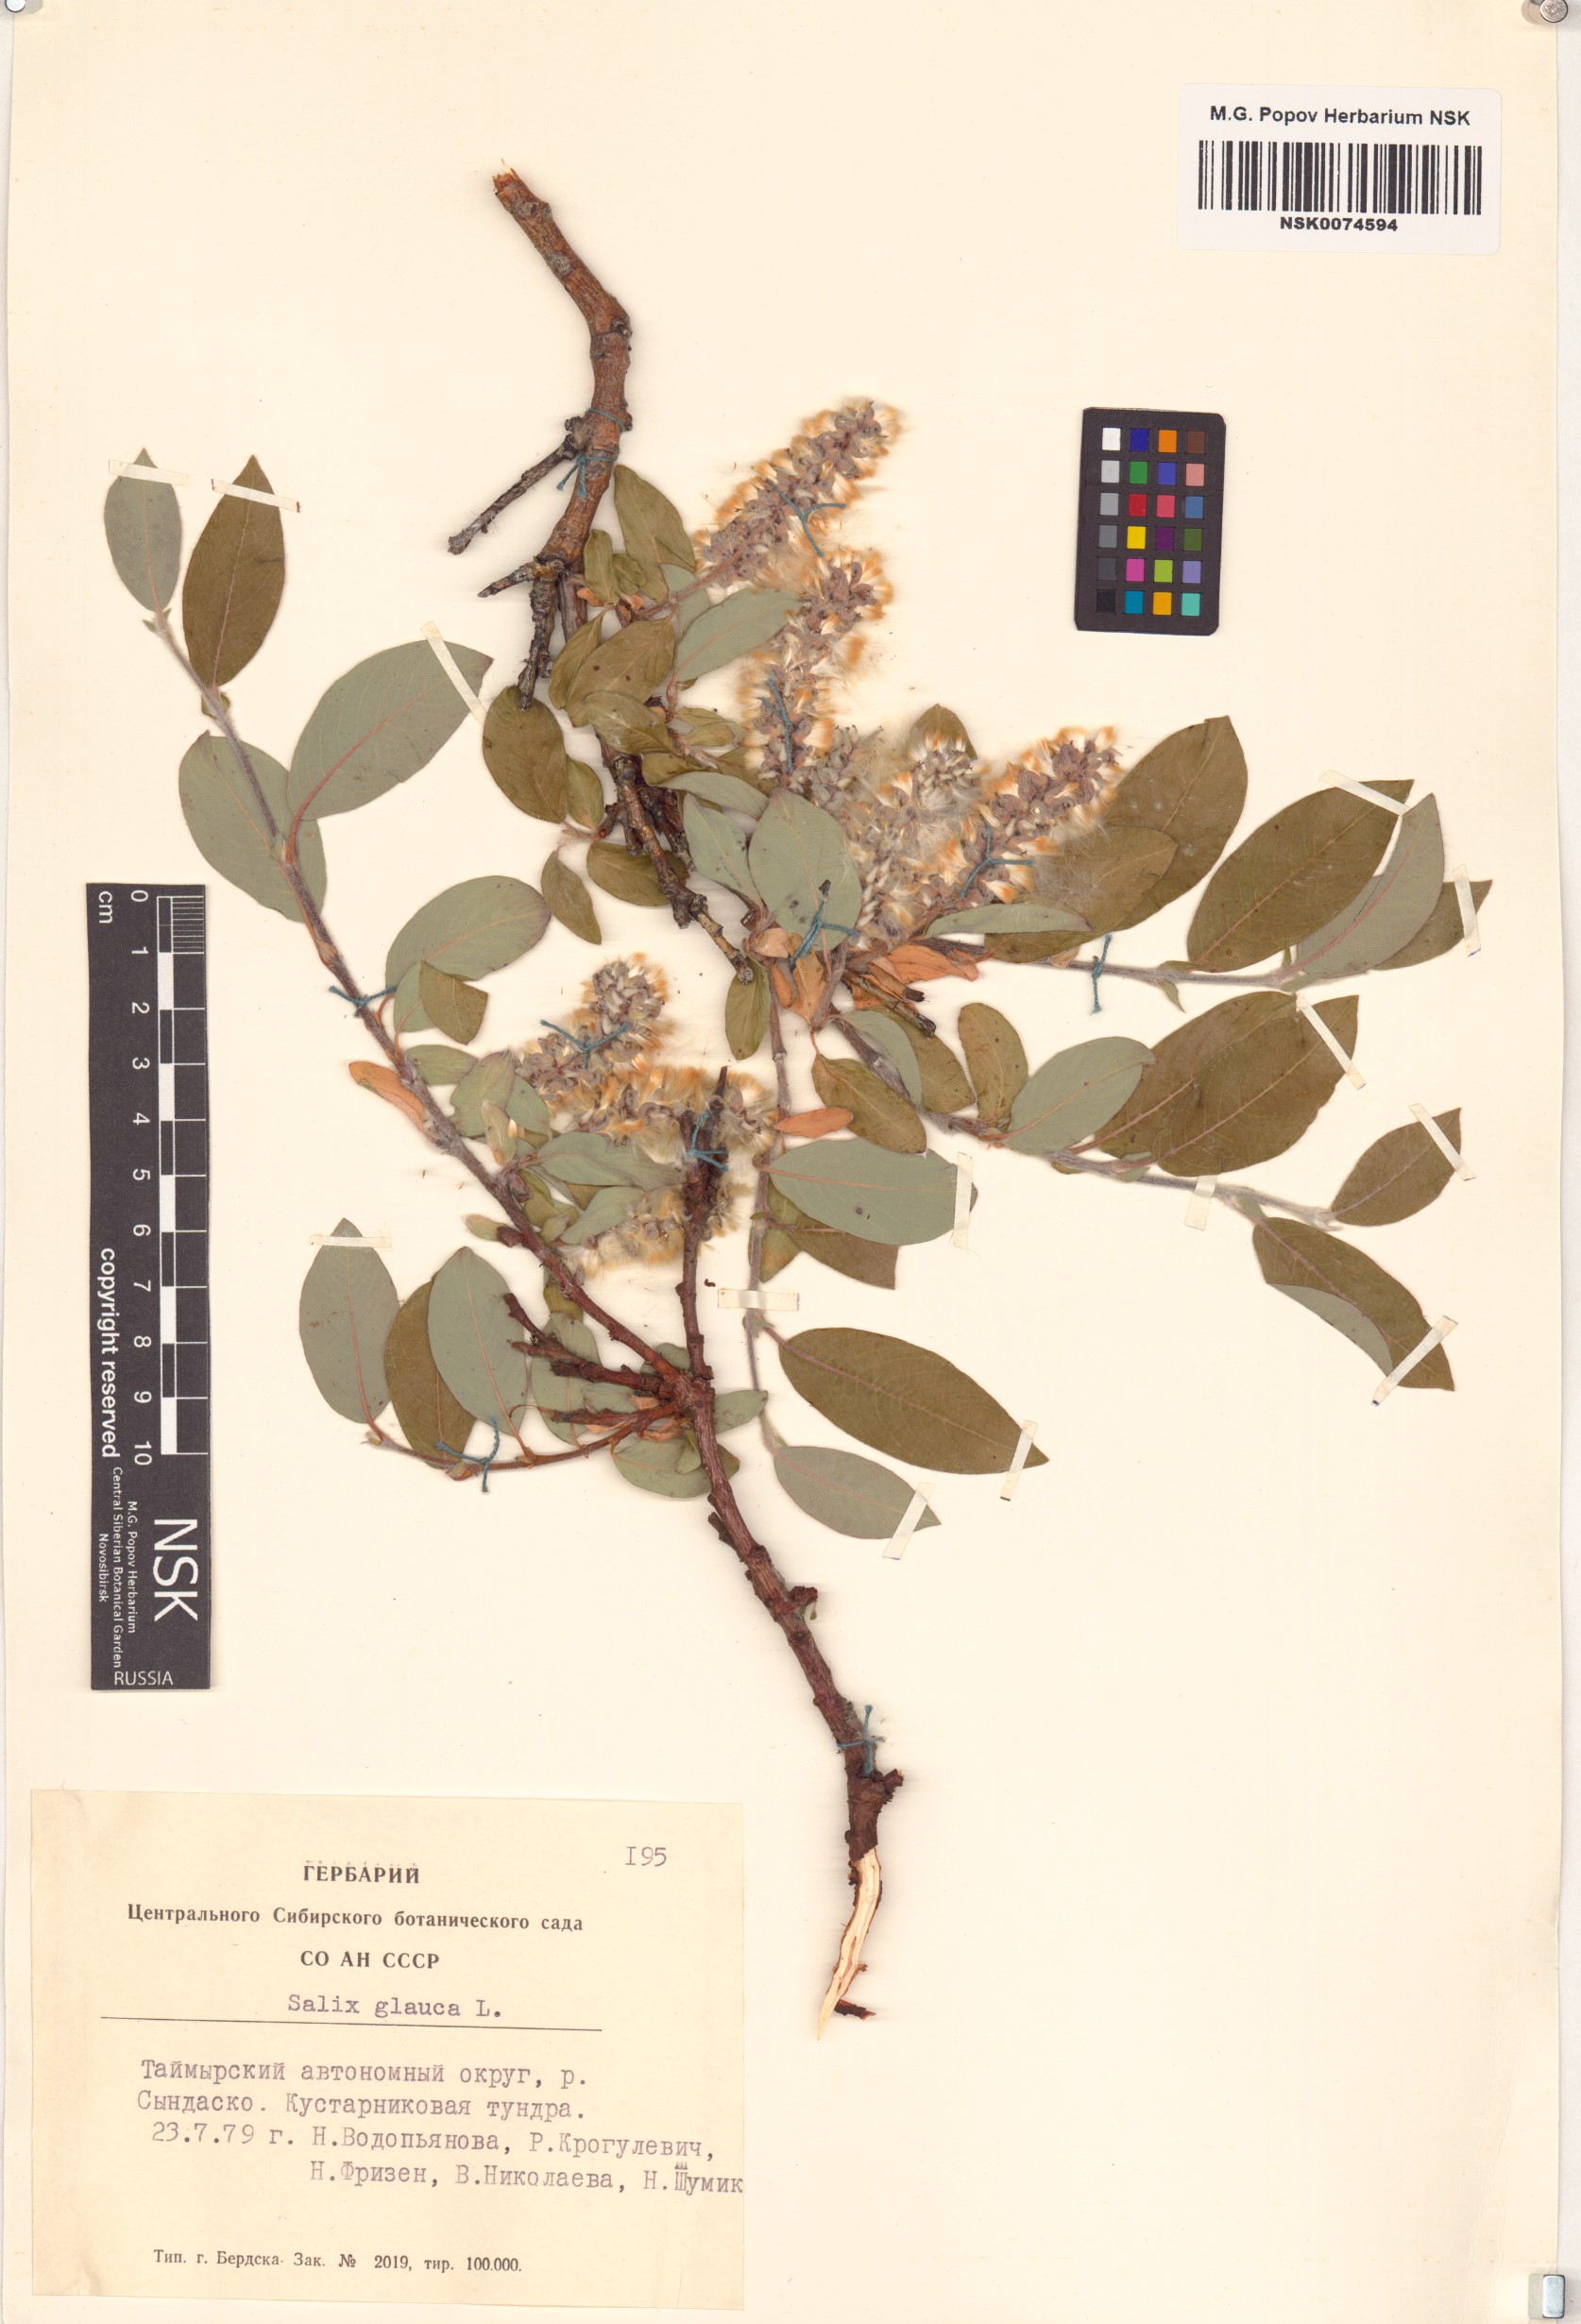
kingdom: Plantae
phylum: Tracheophyta
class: Magnoliopsida
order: Malpighiales
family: Salicaceae
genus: Salix
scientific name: Salix glauca
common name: Glaucous willow
